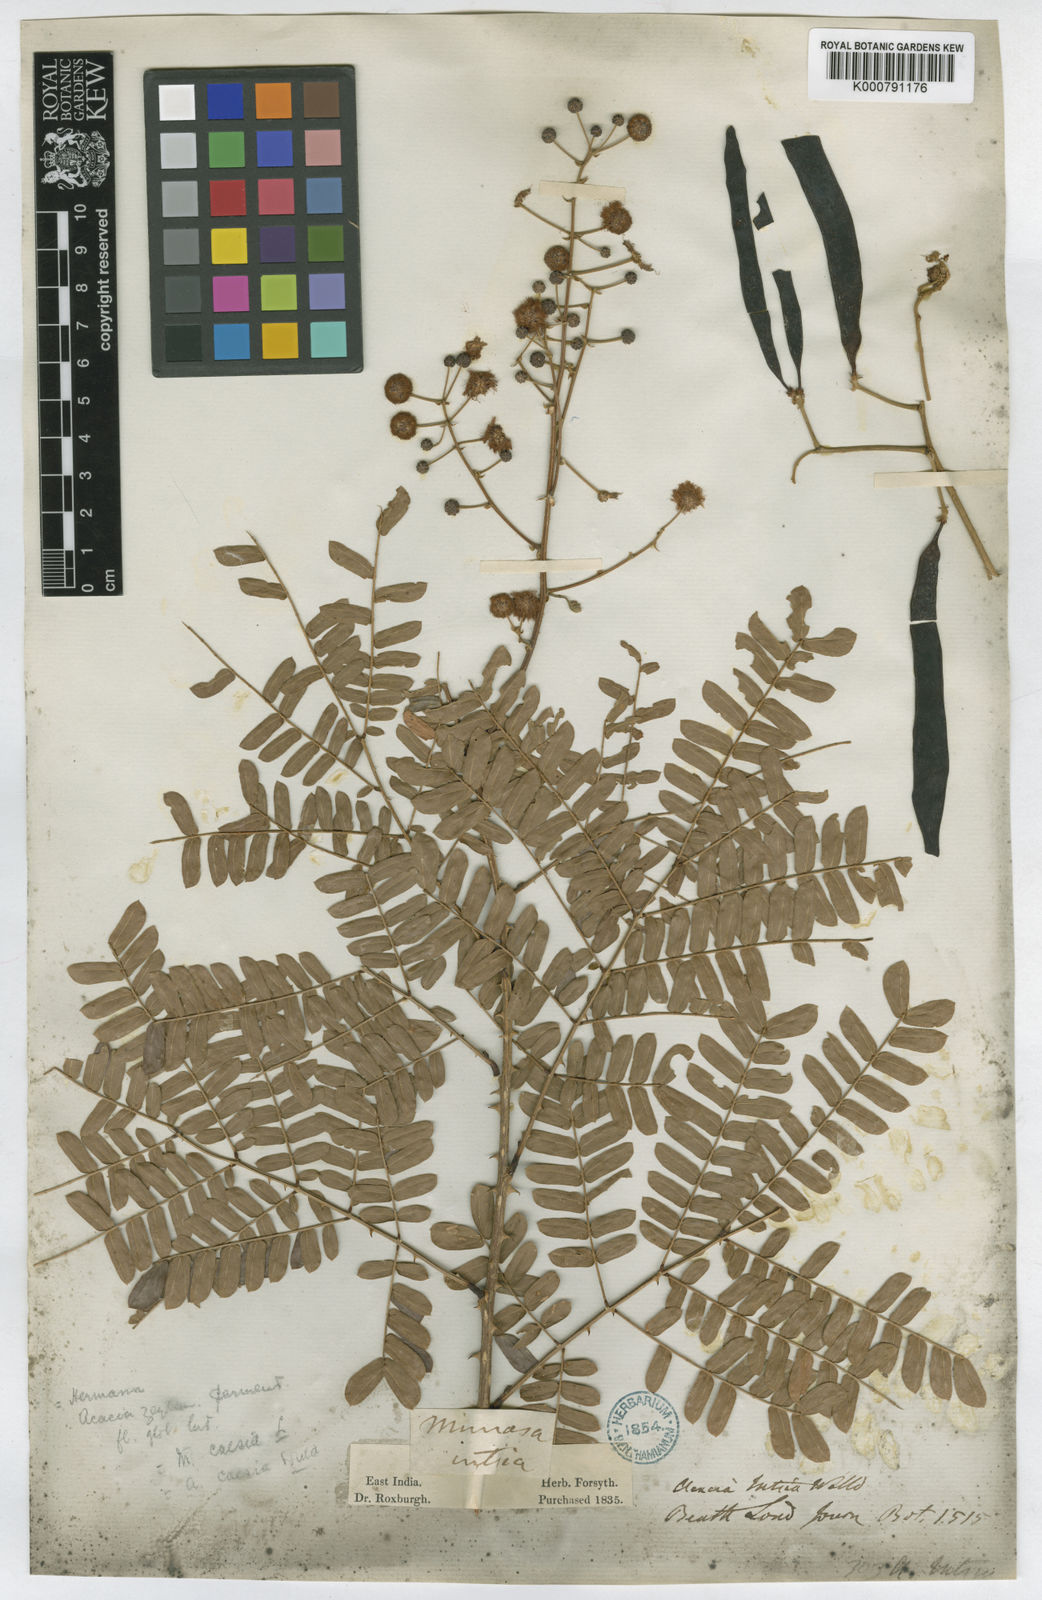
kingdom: Plantae
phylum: Tracheophyta
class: Magnoliopsida
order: Fabales
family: Fabaceae
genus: Senegalia
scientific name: Senegalia caesia
